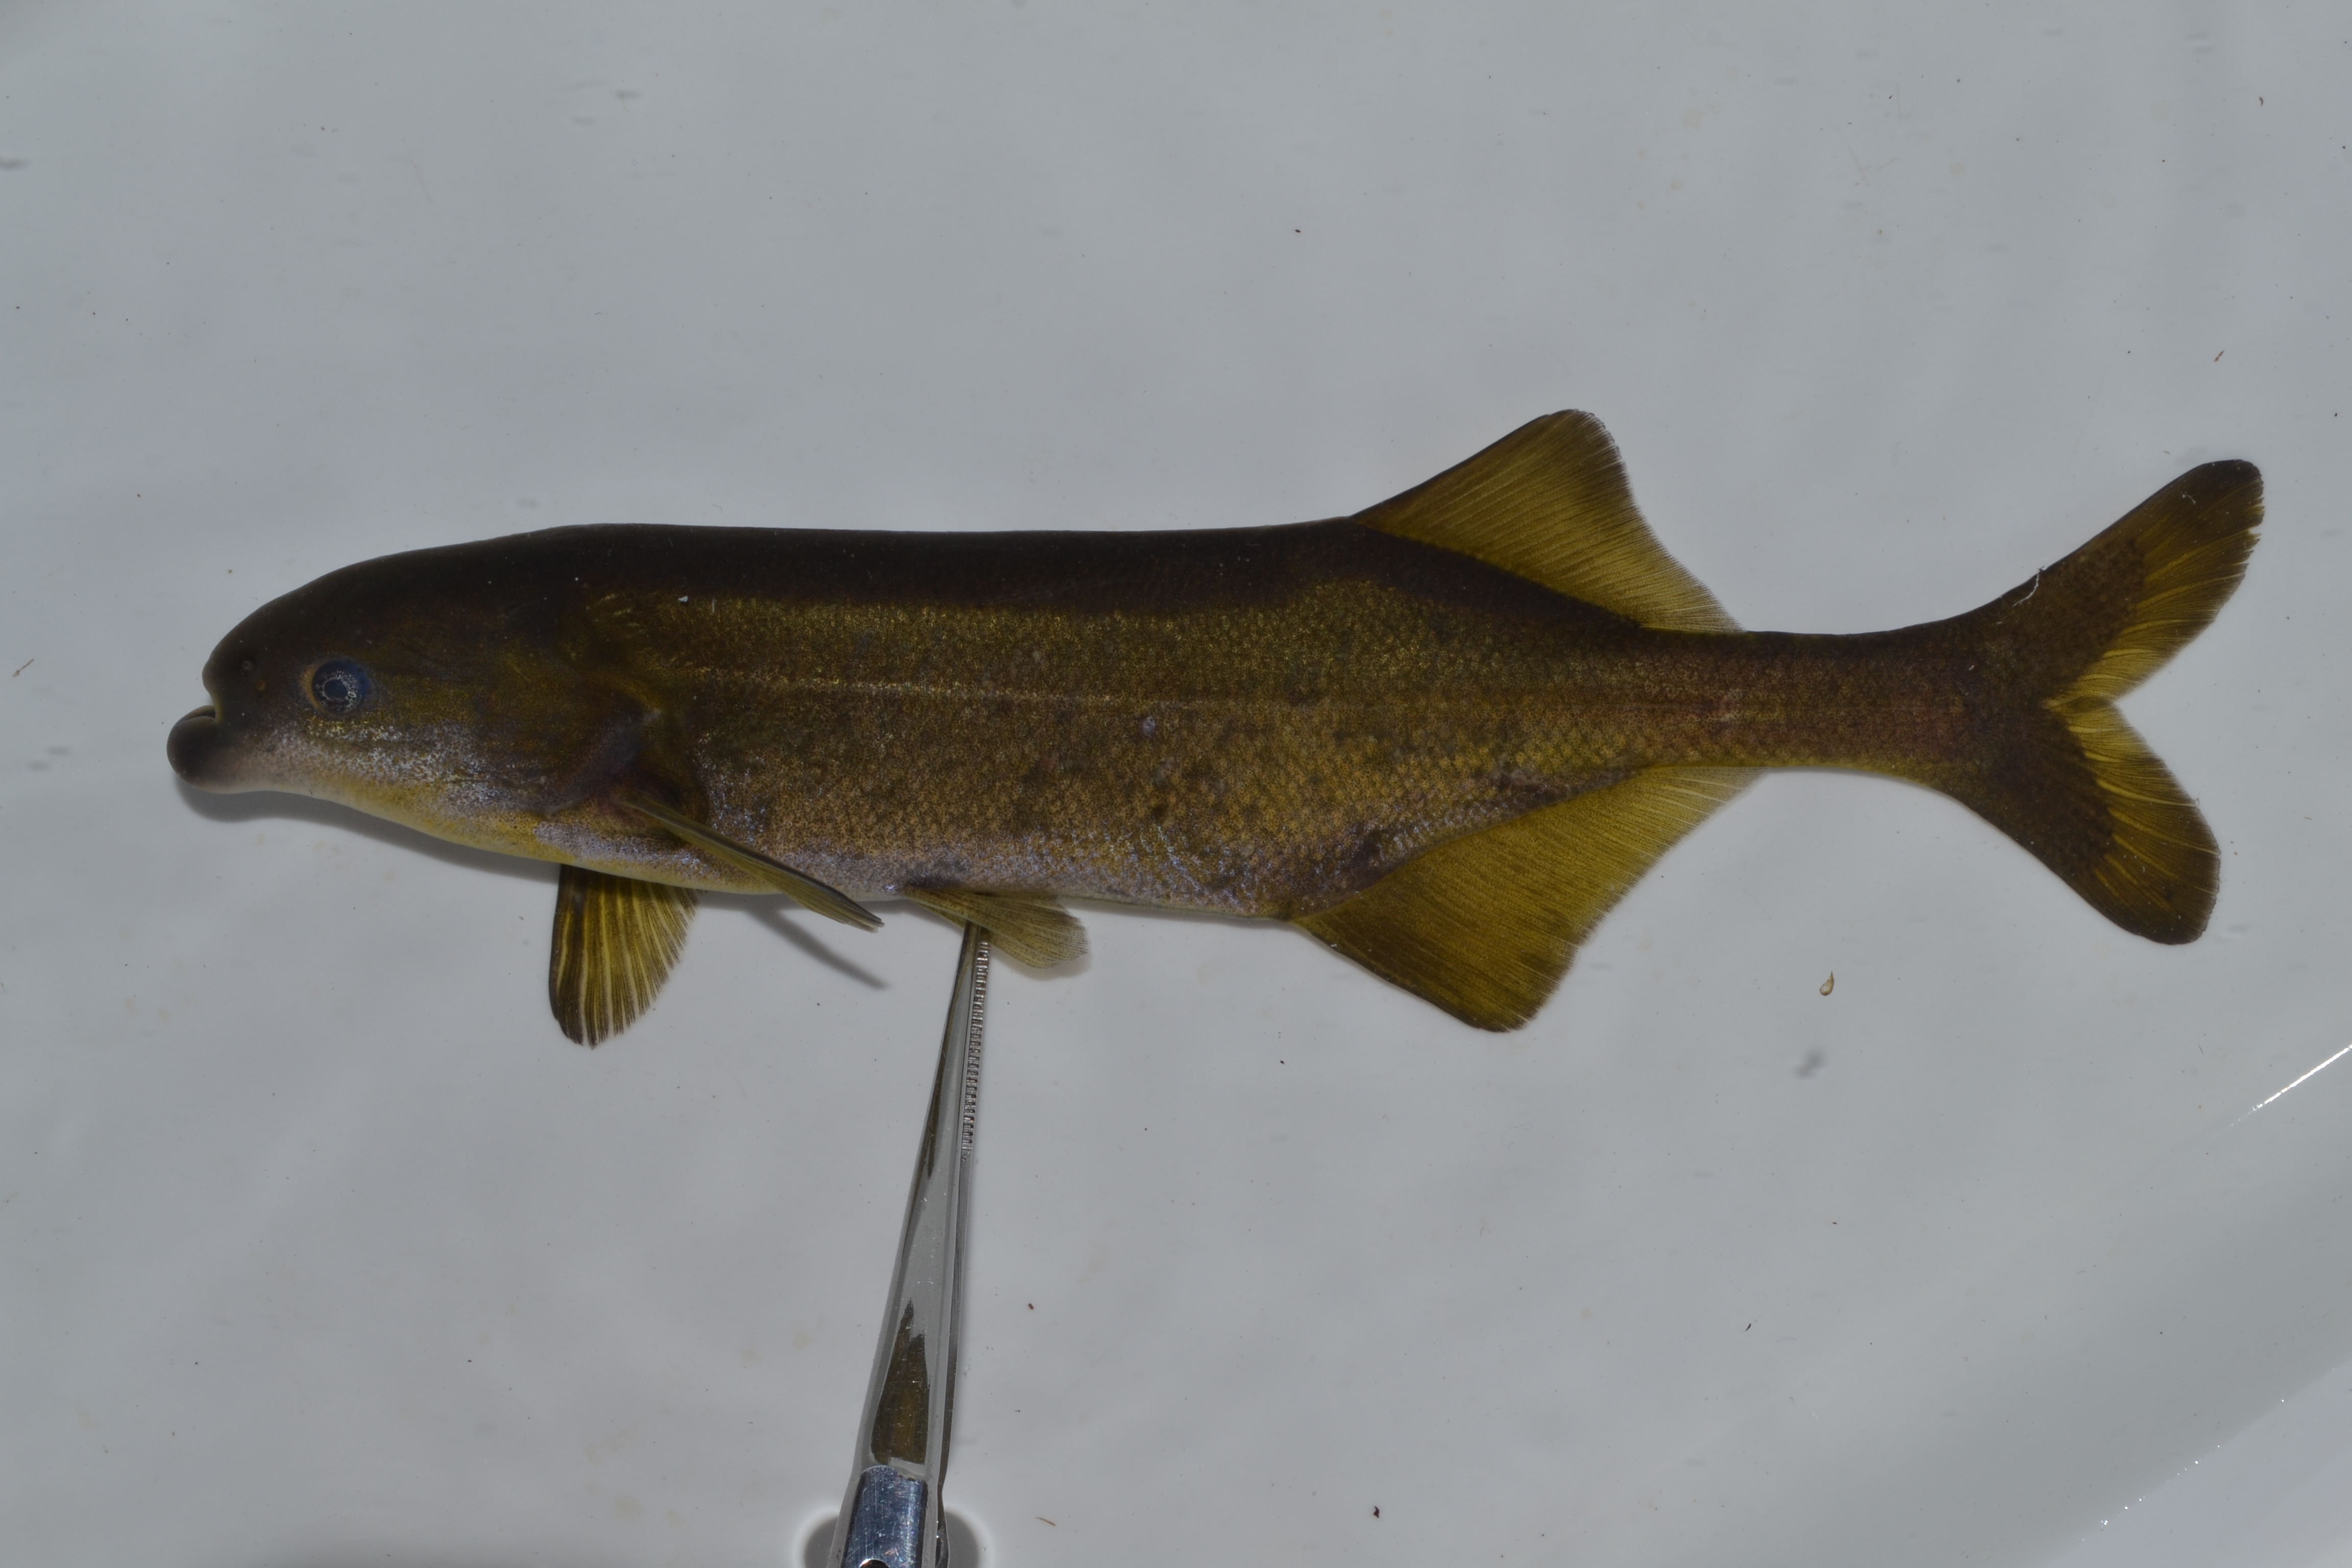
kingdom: Animalia
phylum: Chordata
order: Osteoglossiformes
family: Mormyridae
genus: Marcusenius
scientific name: Marcusenius
